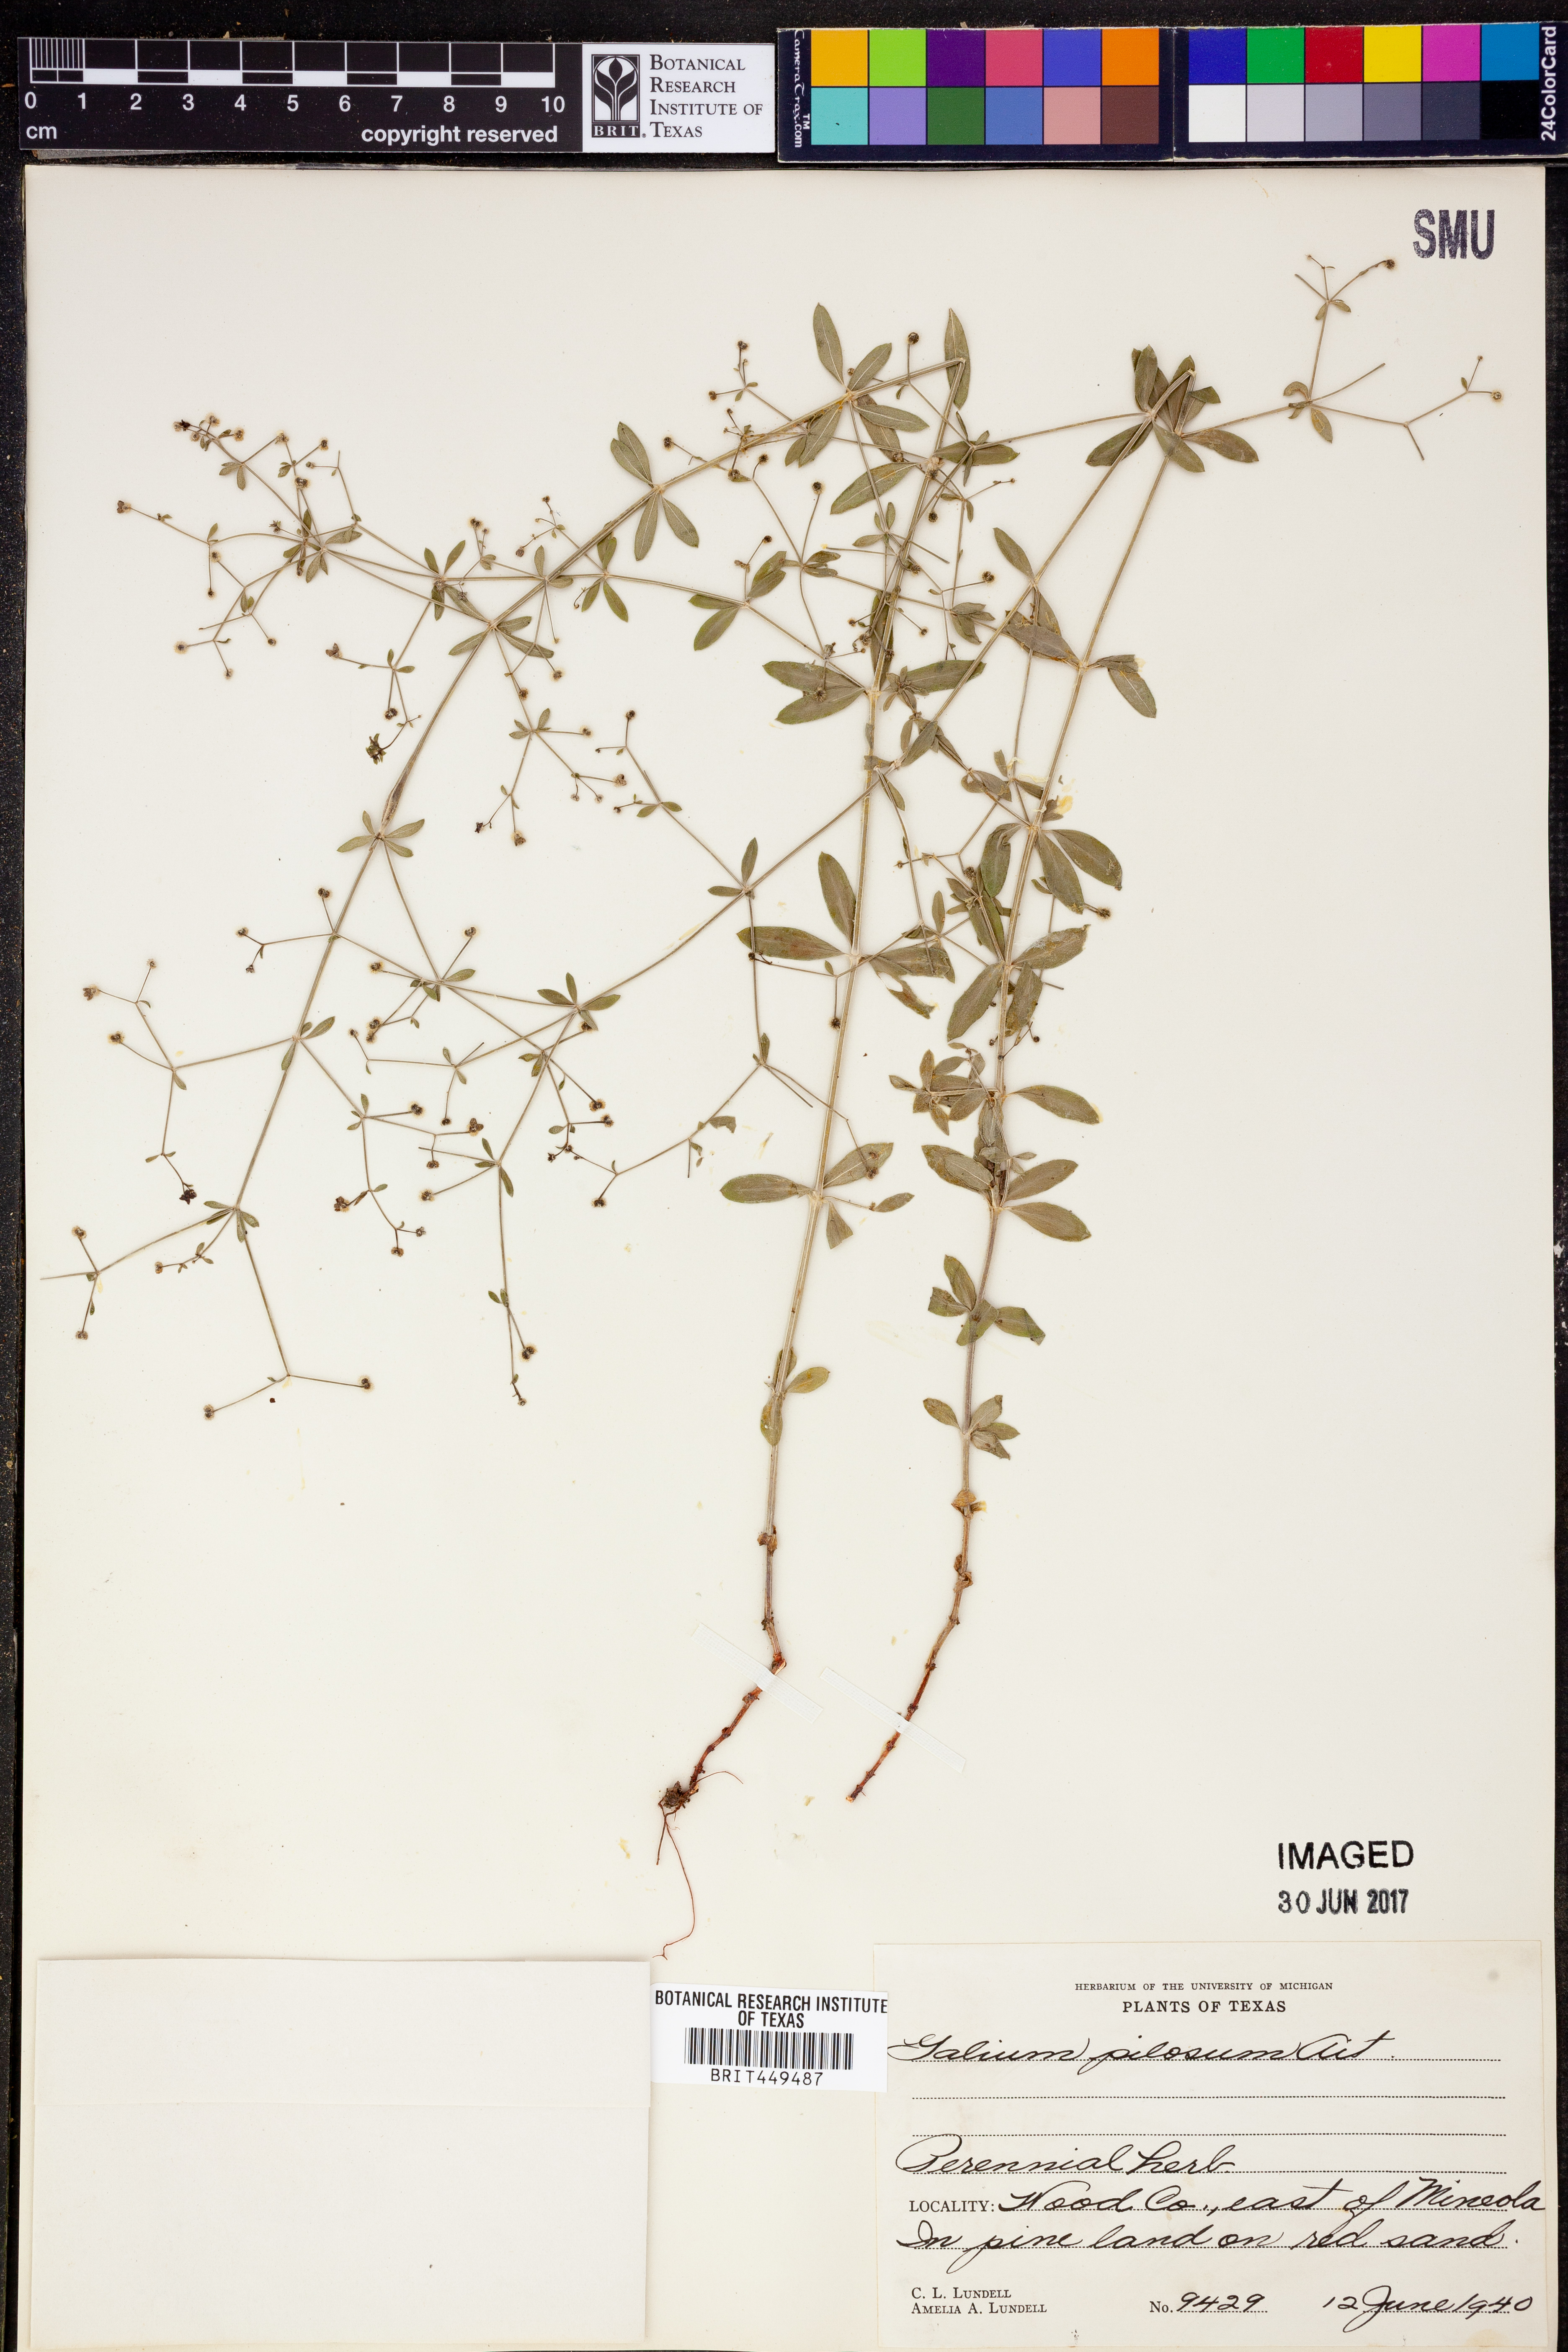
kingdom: Plantae
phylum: Tracheophyta
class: Magnoliopsida
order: Gentianales
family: Rubiaceae
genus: Galium
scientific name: Galium pilosum
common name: Hairy bedstraw
